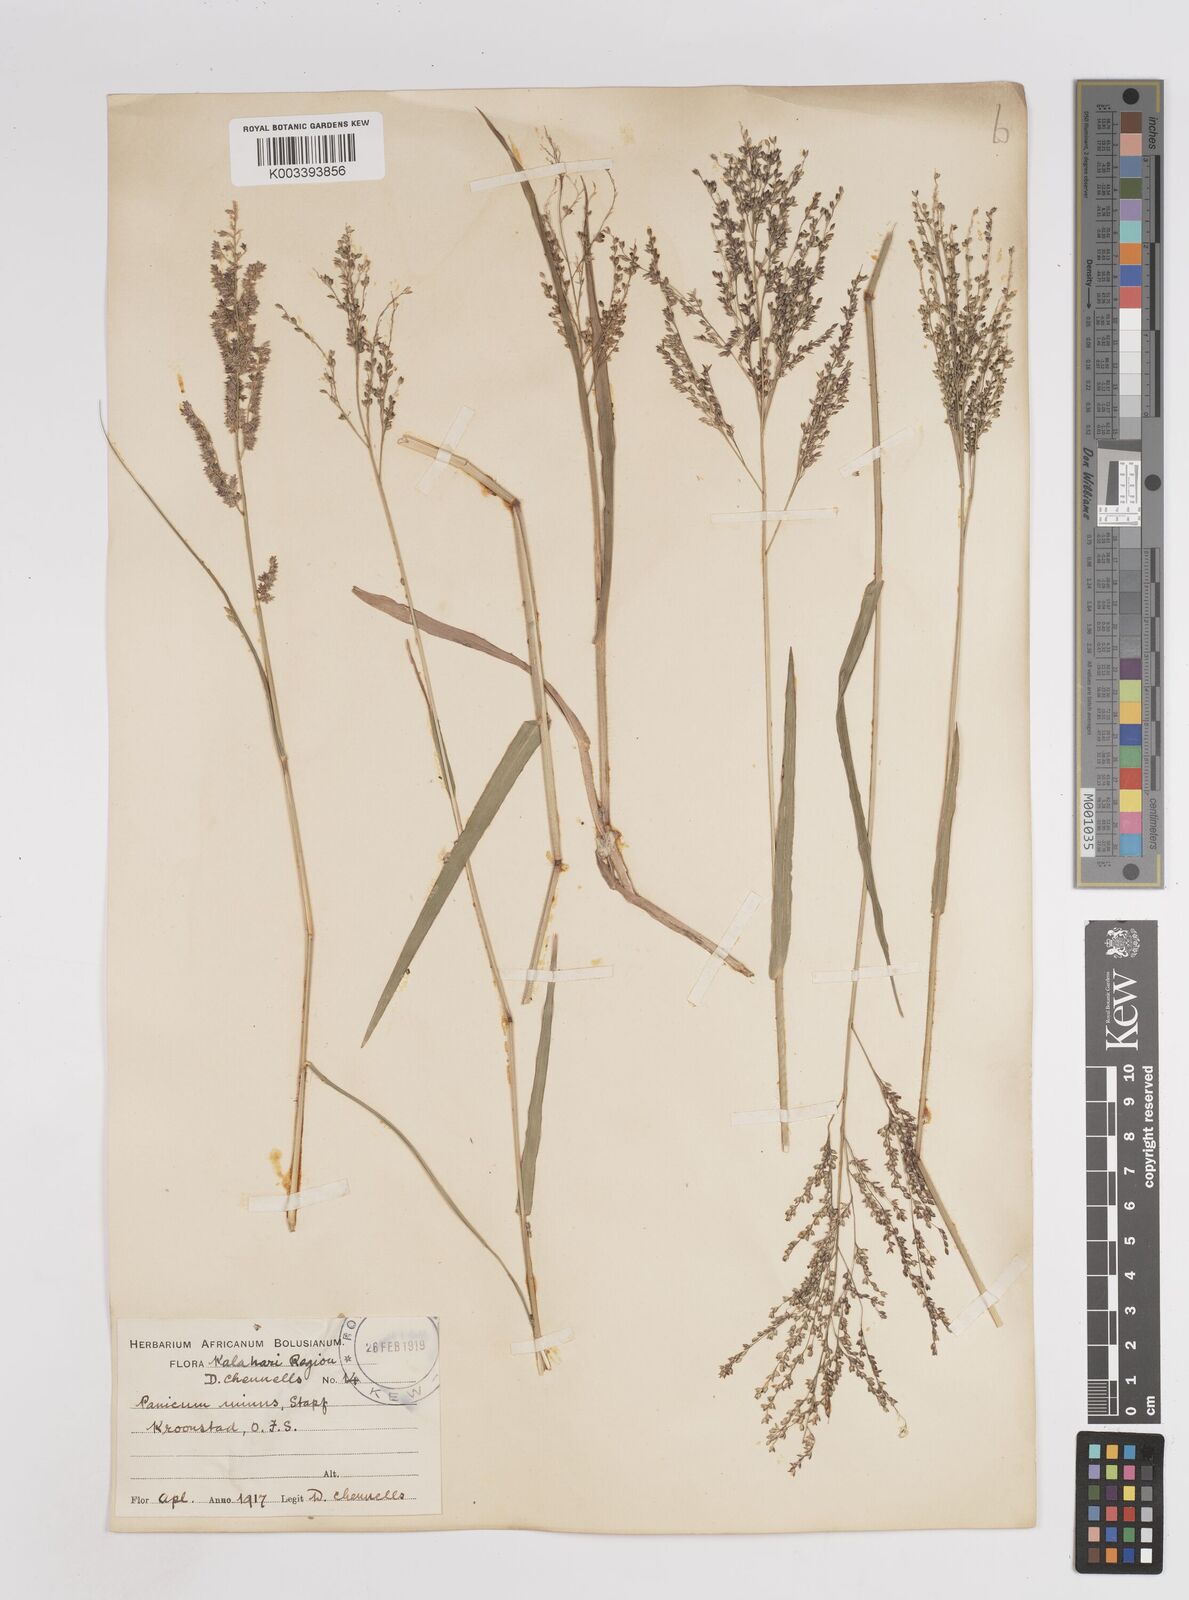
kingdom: Plantae
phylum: Tracheophyta
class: Liliopsida
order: Poales
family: Poaceae
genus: Panicum
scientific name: Panicum stapfianum
